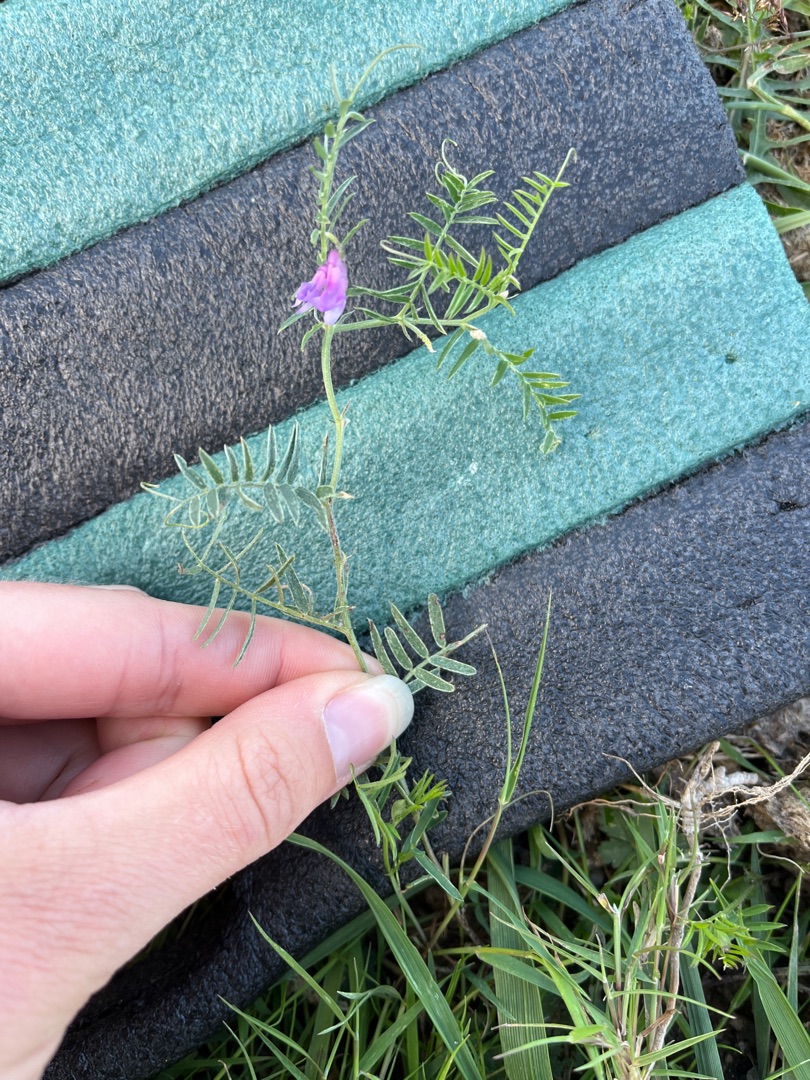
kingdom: Plantae
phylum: Tracheophyta
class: Magnoliopsida
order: Fabales
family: Fabaceae
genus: Vicia
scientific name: Vicia cracca
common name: Muse-vikke
